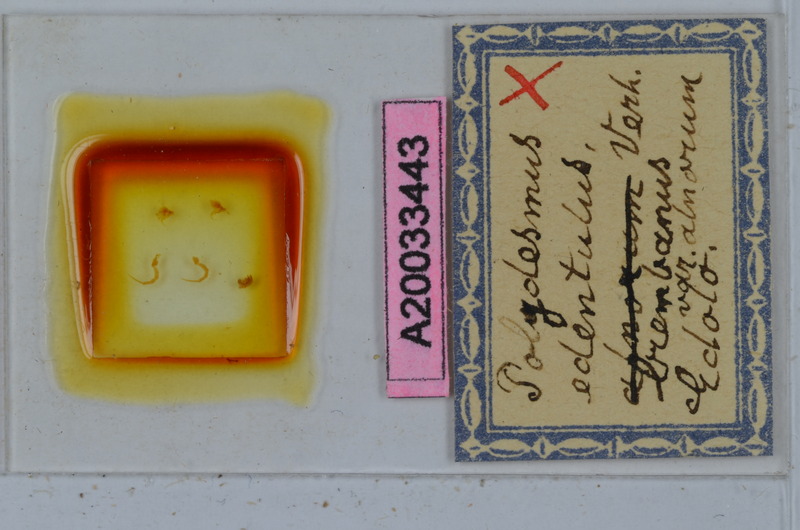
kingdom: Animalia
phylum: Arthropoda
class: Diplopoda
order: Polydesmida
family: Polydesmidae
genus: Polydesmus
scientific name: Polydesmus edentulus
